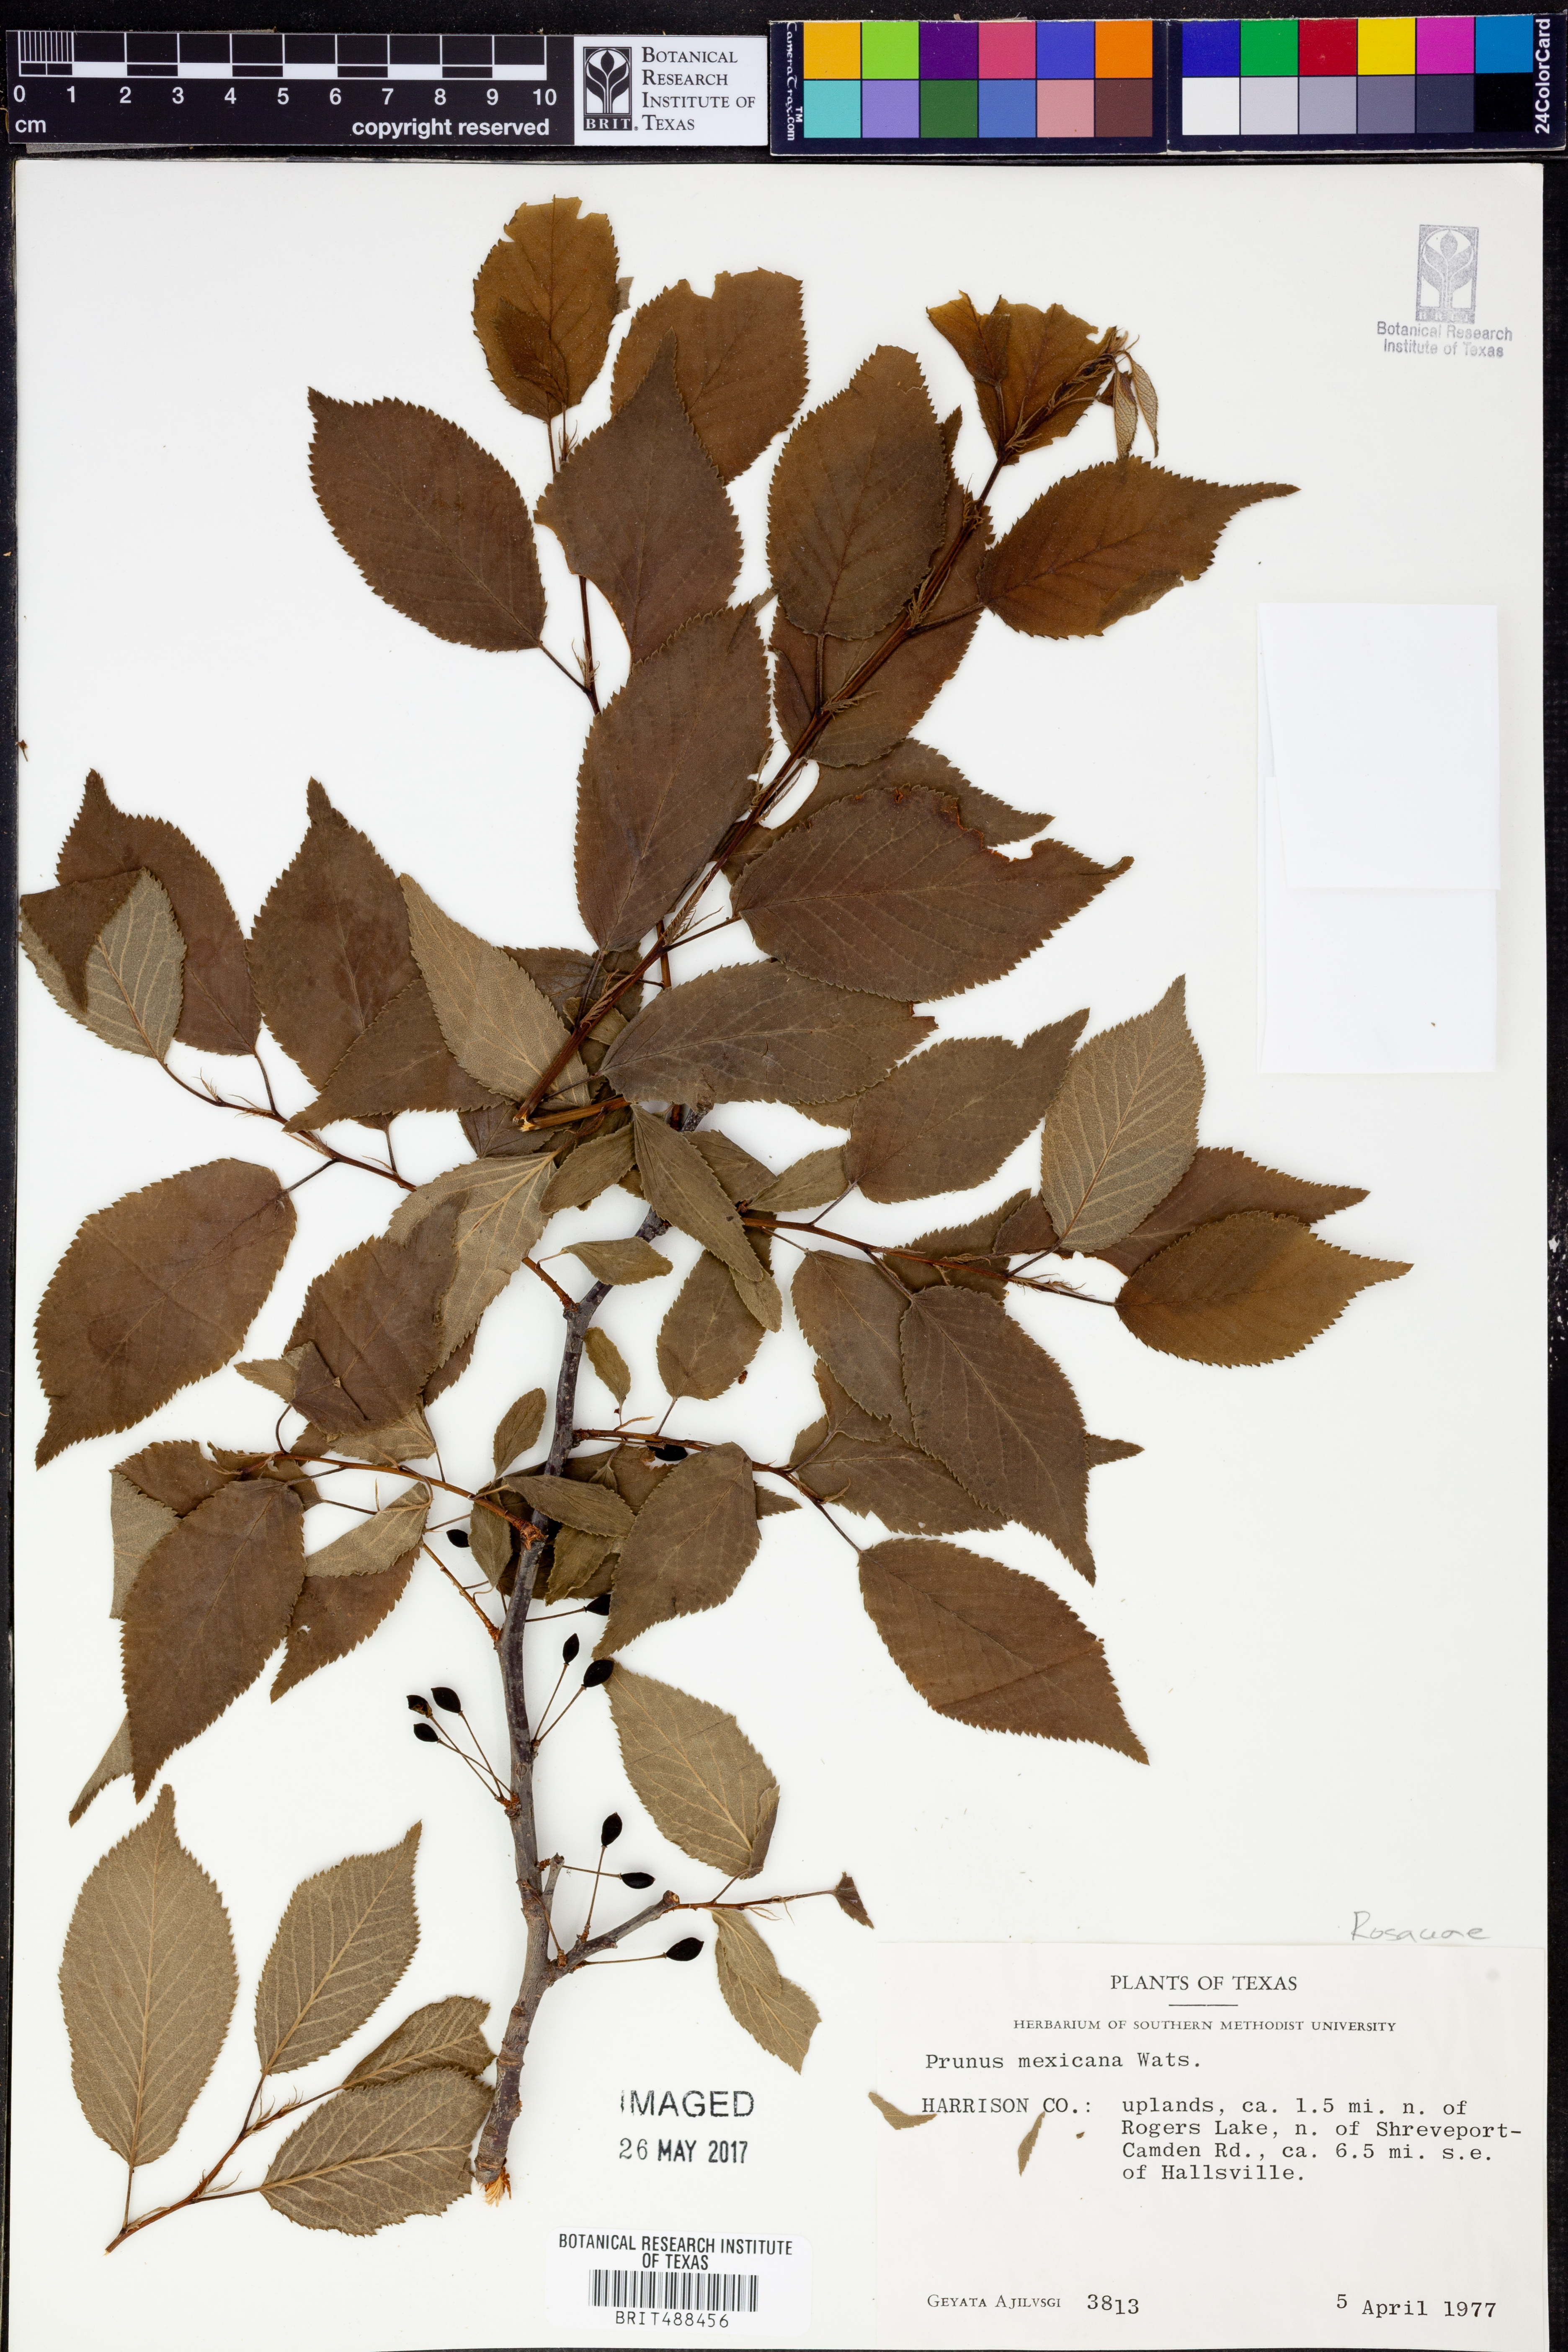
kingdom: Plantae
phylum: Tracheophyta
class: Magnoliopsida
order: Rosales
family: Rosaceae
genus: Prunus
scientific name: Prunus mexicana
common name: Mexican plum
